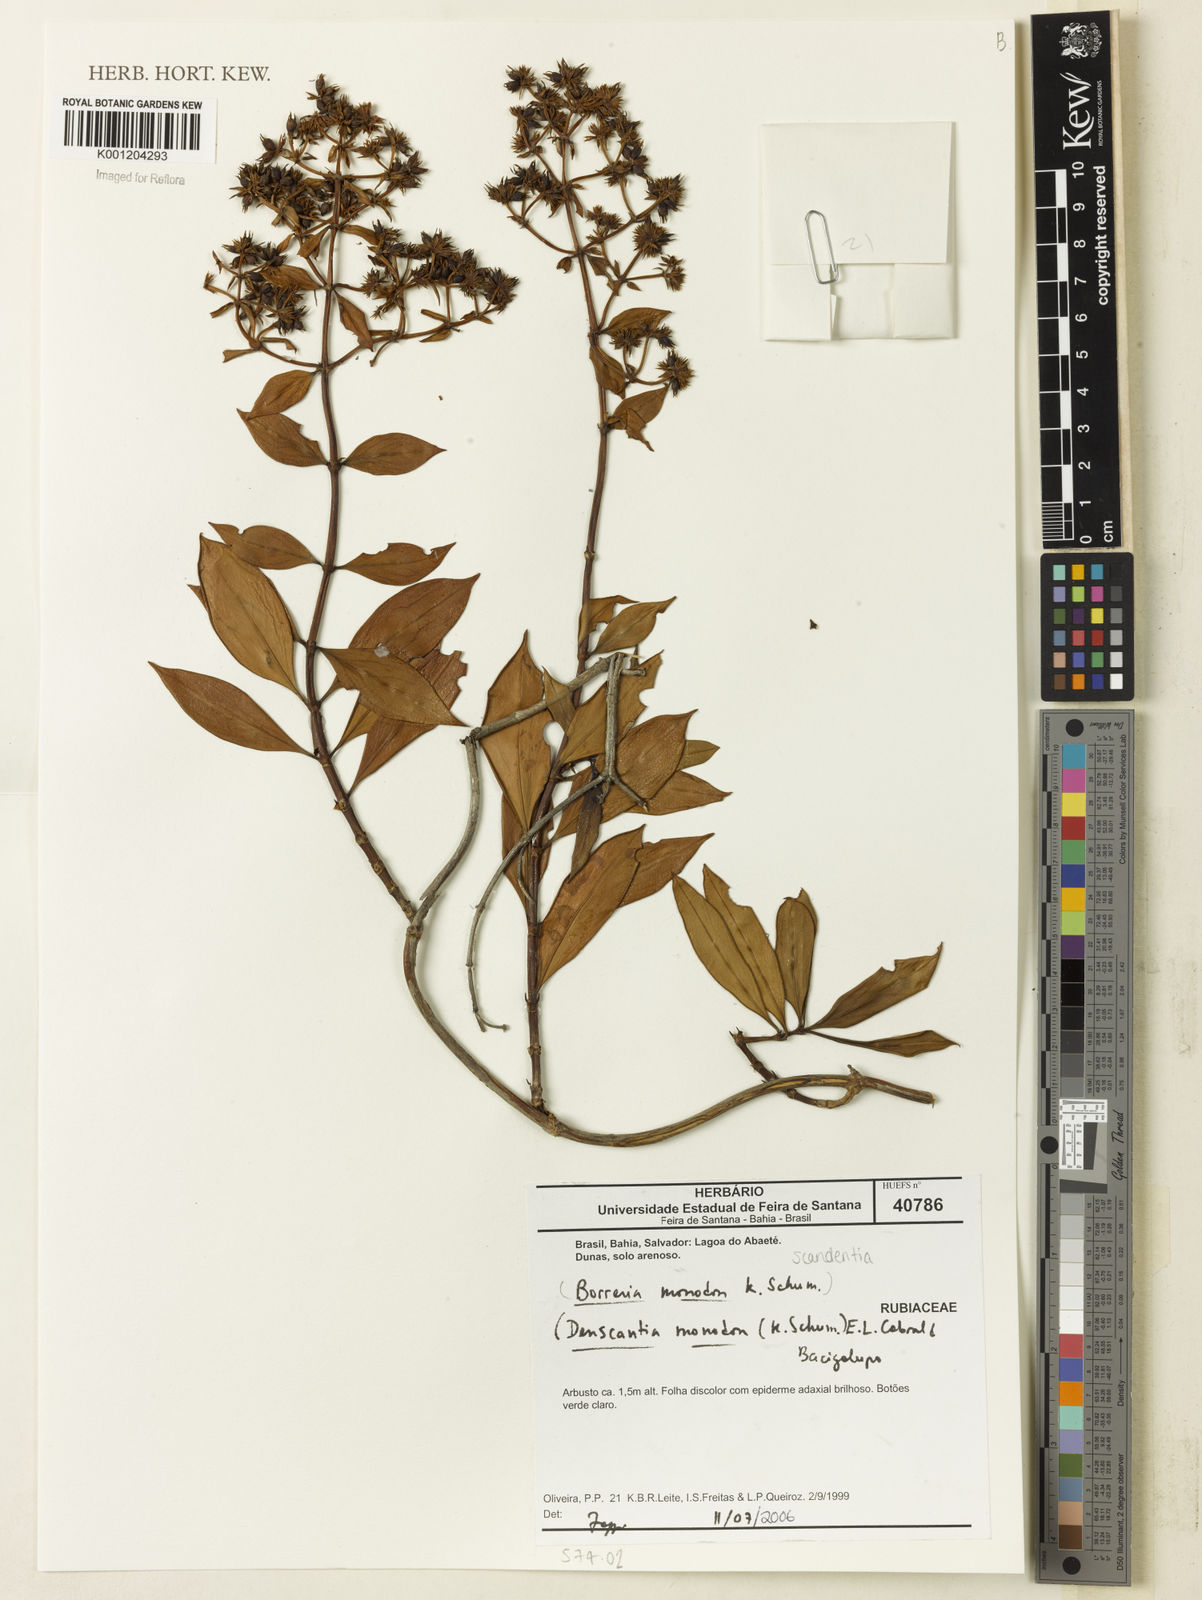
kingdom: Plantae
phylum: Tracheophyta
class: Magnoliopsida
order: Gentianales
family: Rubiaceae
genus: Denscantia
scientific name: Denscantia monodon
